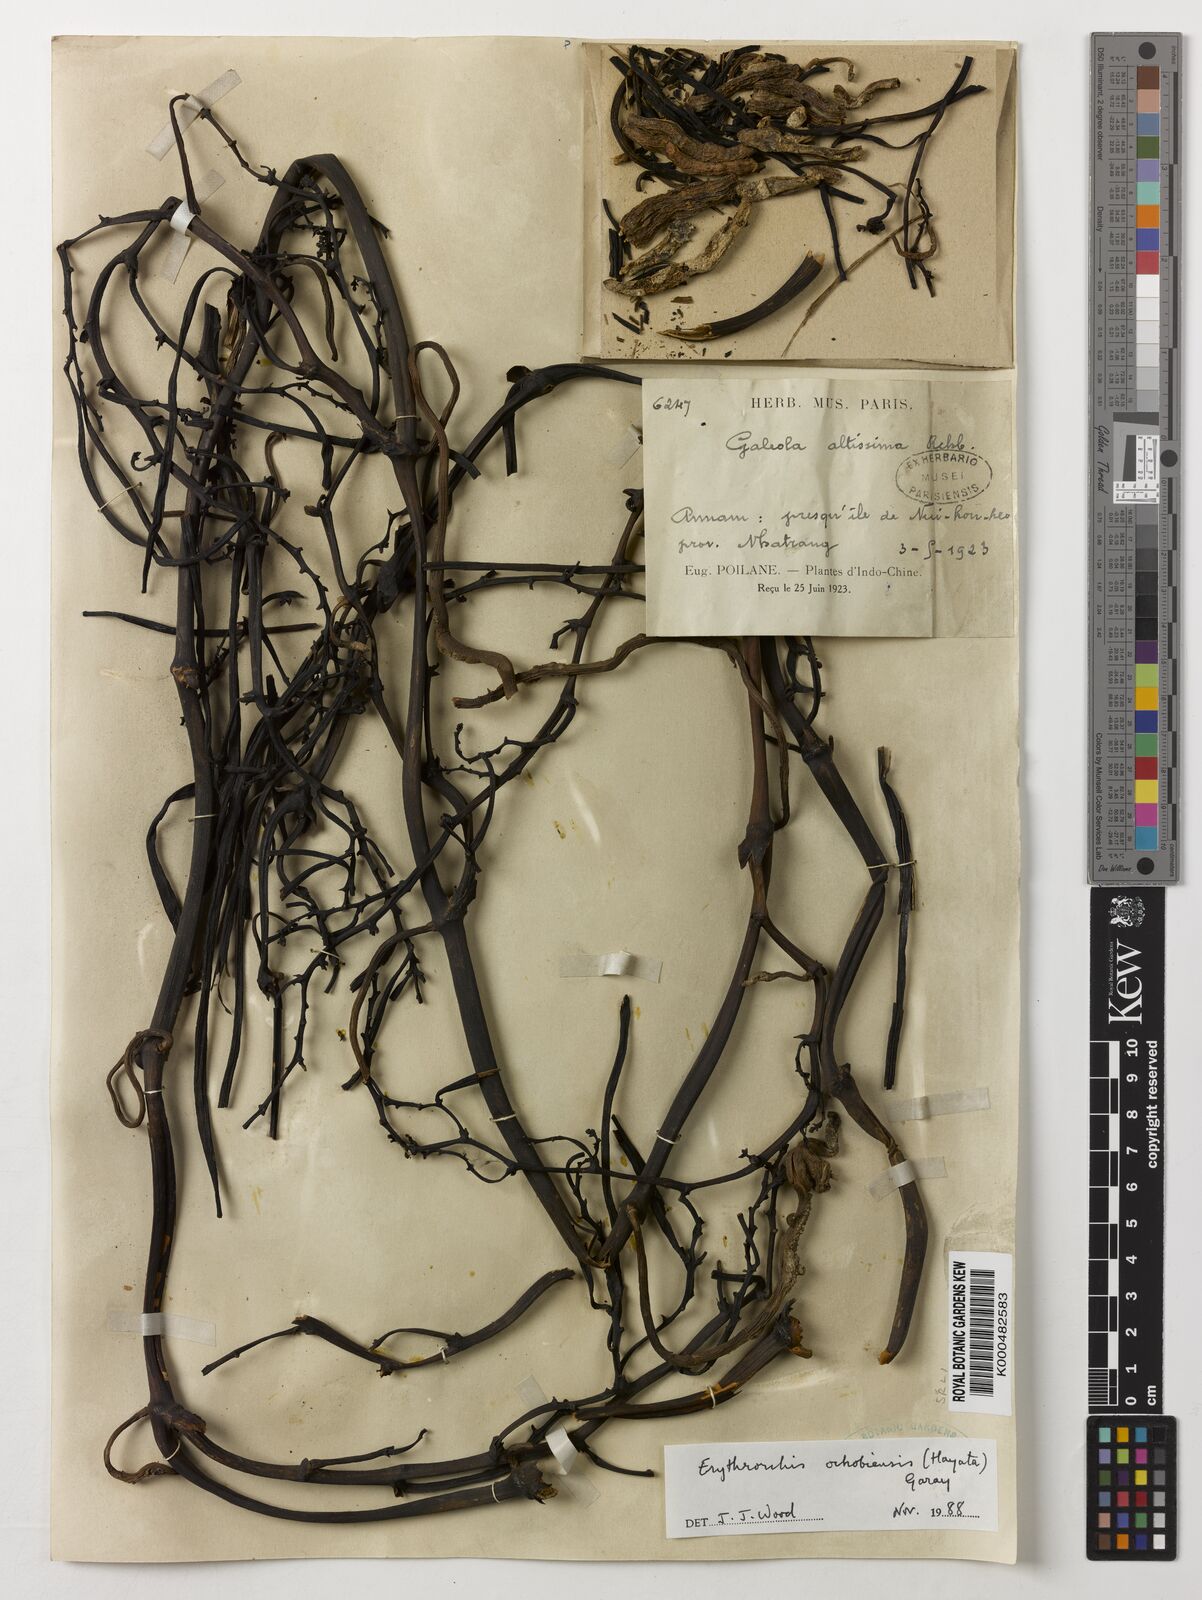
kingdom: Plantae
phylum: Tracheophyta
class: Liliopsida
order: Asparagales
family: Orchidaceae
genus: Erythrorchis
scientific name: Erythrorchis altissima
